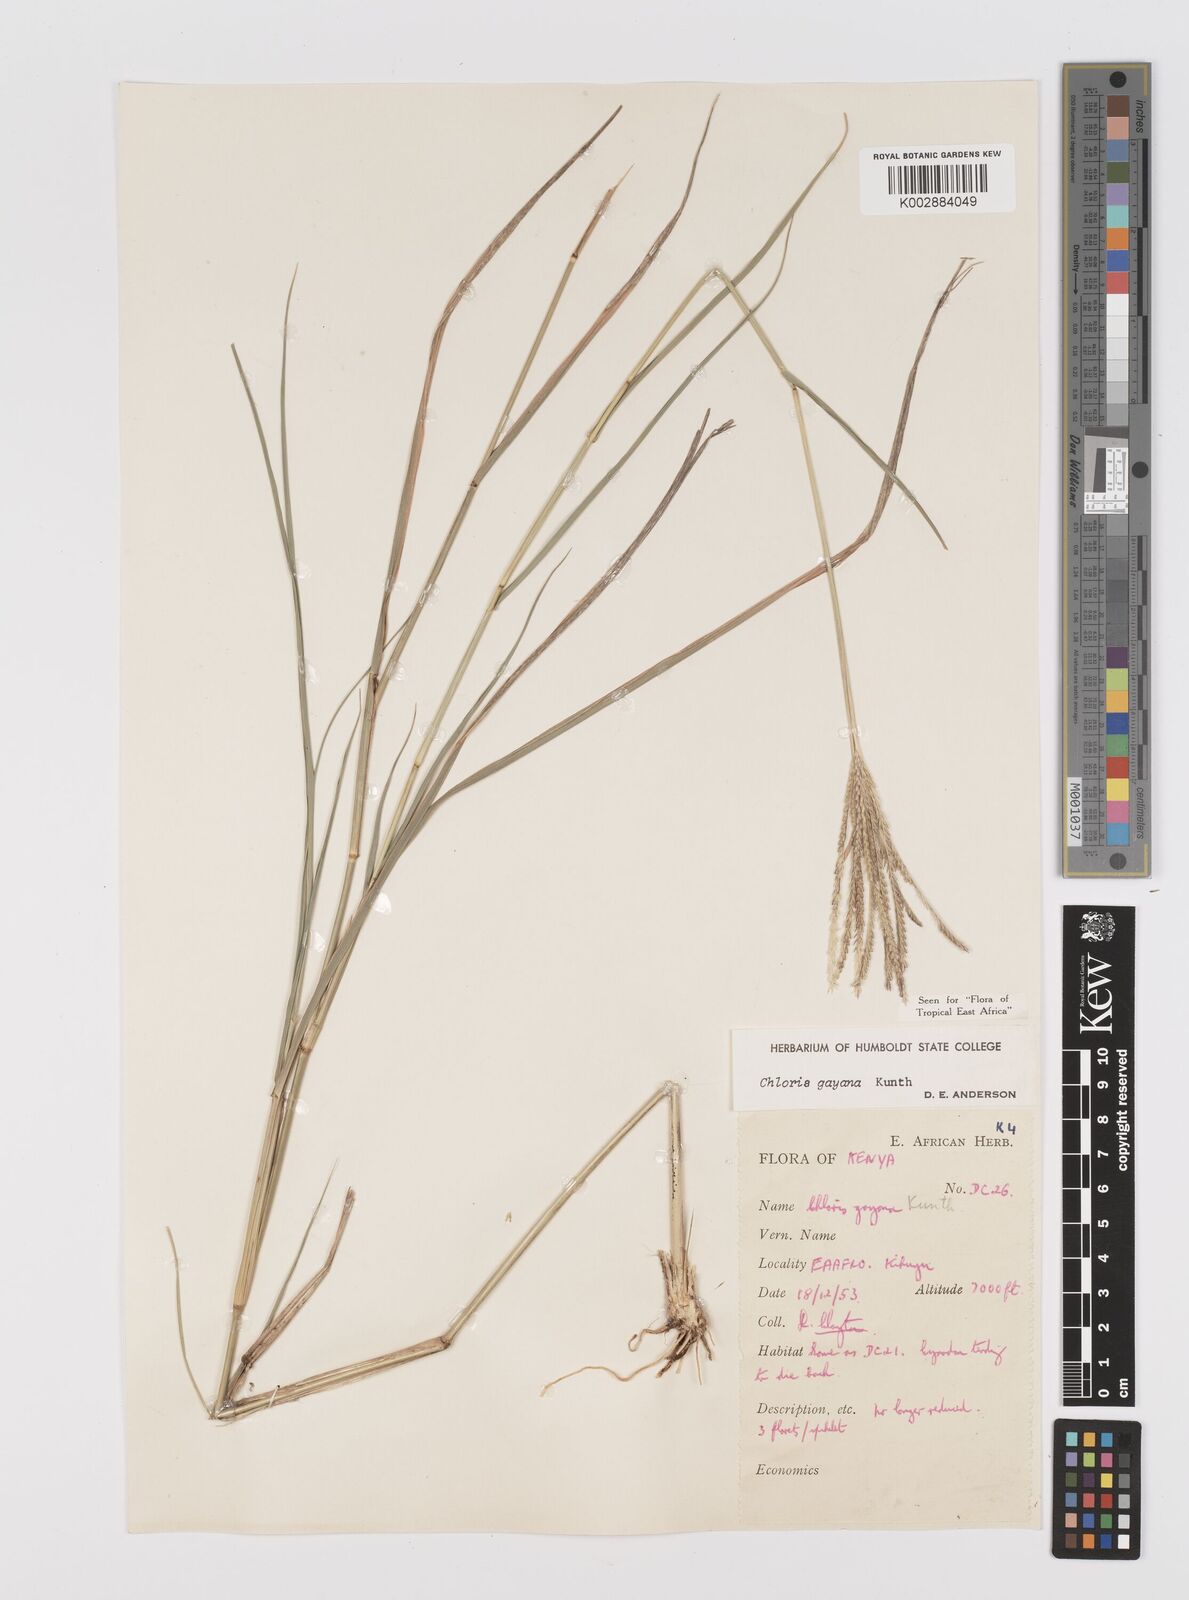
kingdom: Plantae
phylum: Tracheophyta
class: Liliopsida
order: Poales
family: Poaceae
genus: Chloris
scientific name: Chloris gayana
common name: Rhodes grass
